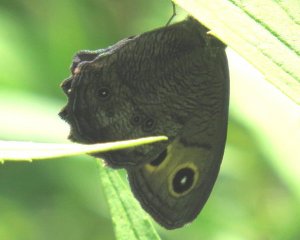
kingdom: Animalia
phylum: Arthropoda
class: Insecta
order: Lepidoptera
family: Nymphalidae
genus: Cercyonis
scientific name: Cercyonis pegala
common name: Common Wood-Nymph
